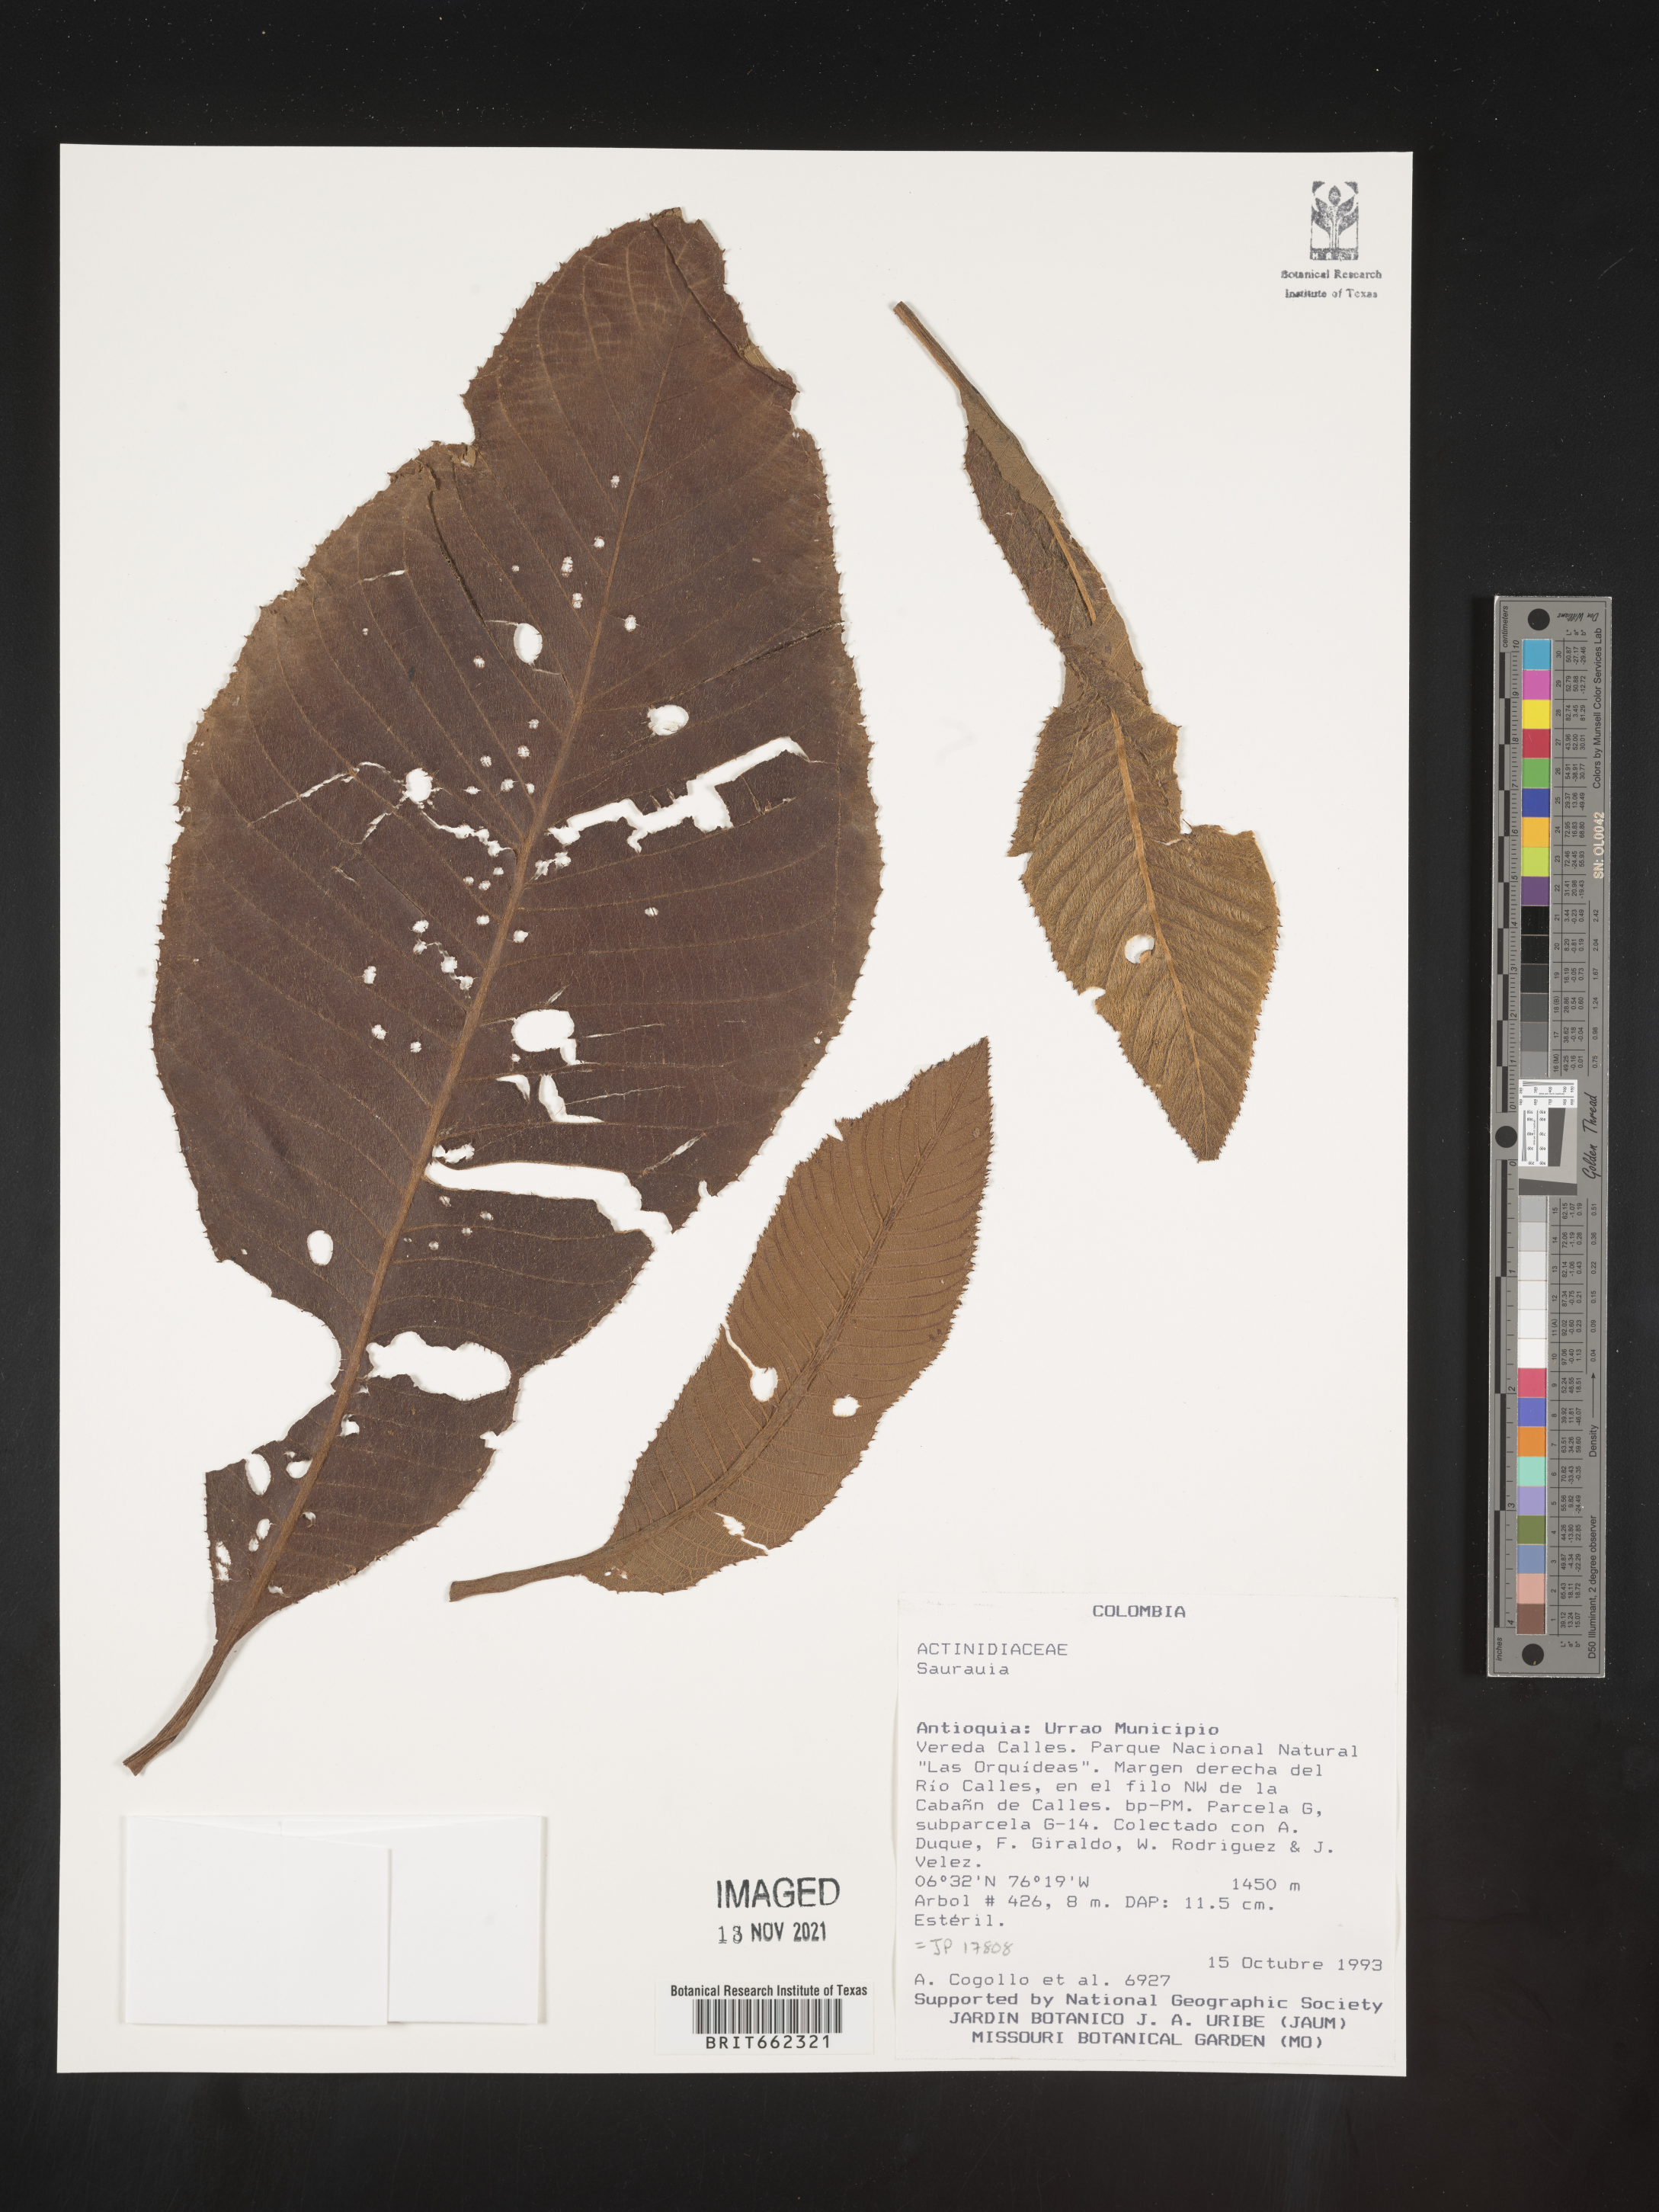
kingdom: Plantae
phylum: Tracheophyta
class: Magnoliopsida
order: Ericales
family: Actinidiaceae
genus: Saurauia
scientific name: Saurauia
